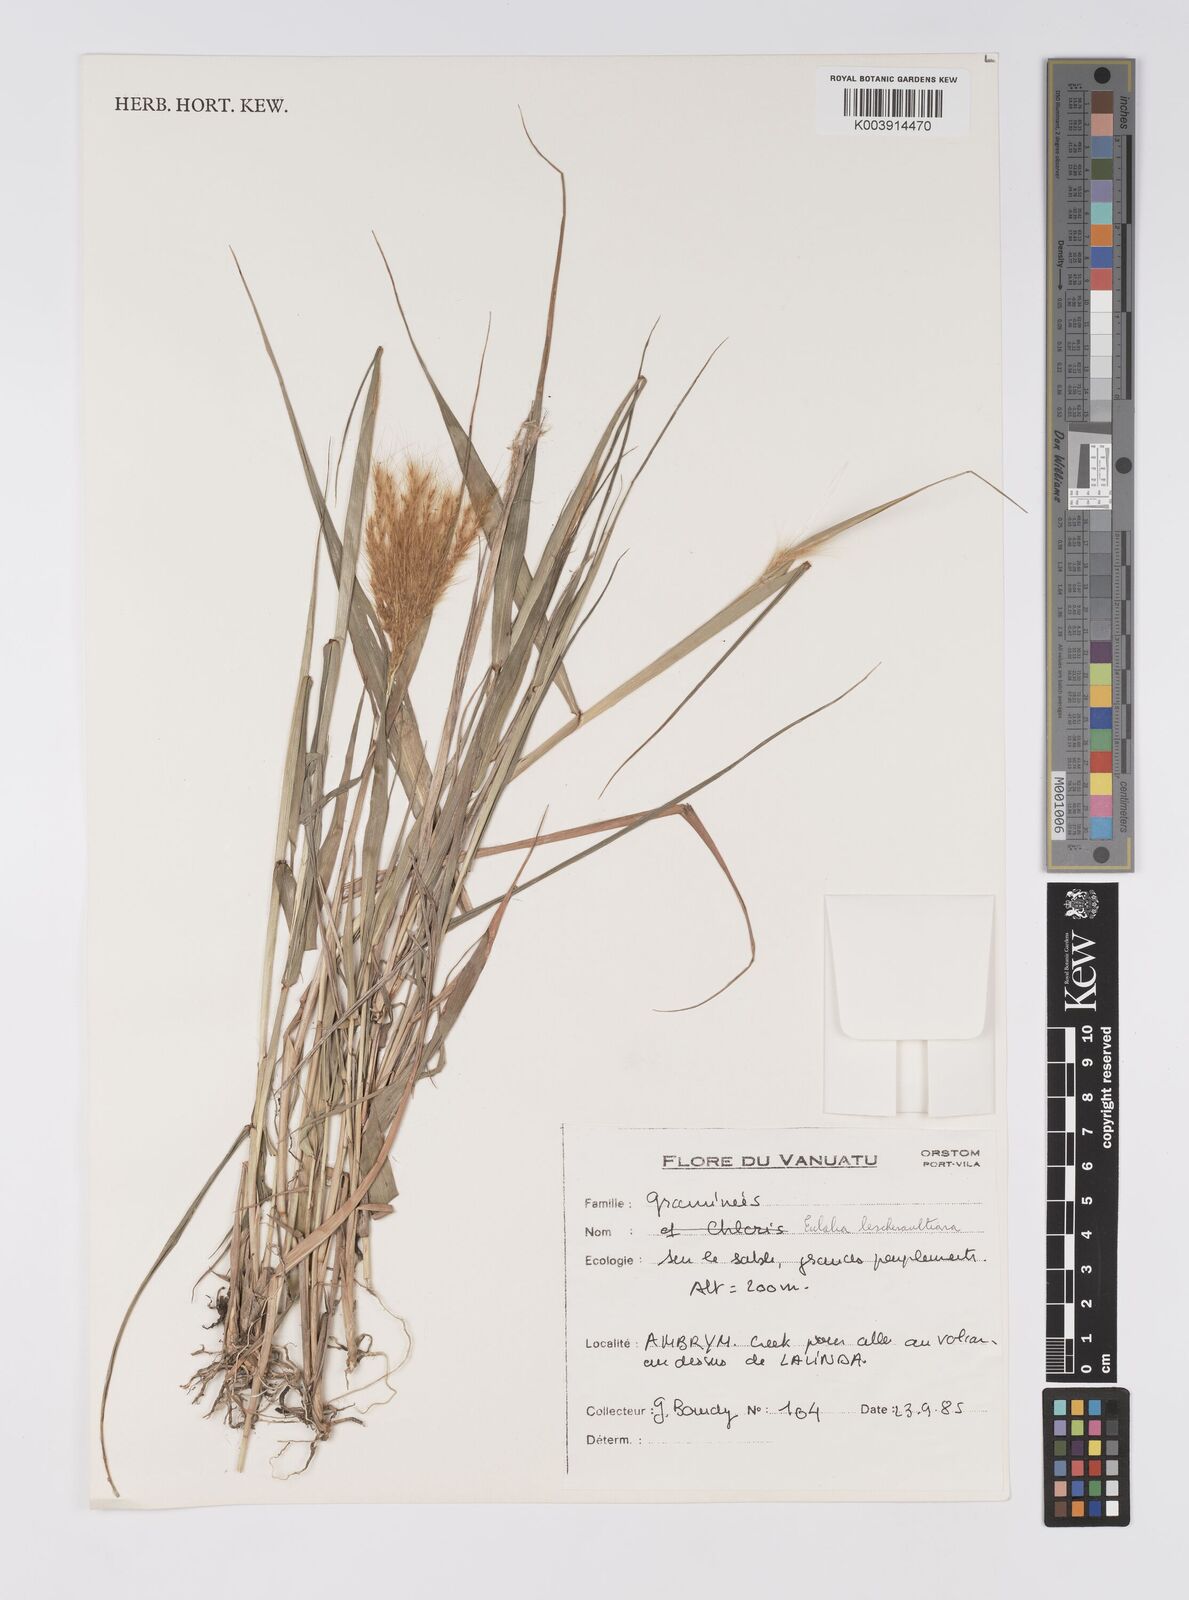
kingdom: Plantae
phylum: Tracheophyta
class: Liliopsida
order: Poales
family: Poaceae
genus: Eulalia
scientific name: Eulalia aurea
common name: Silky browntop
